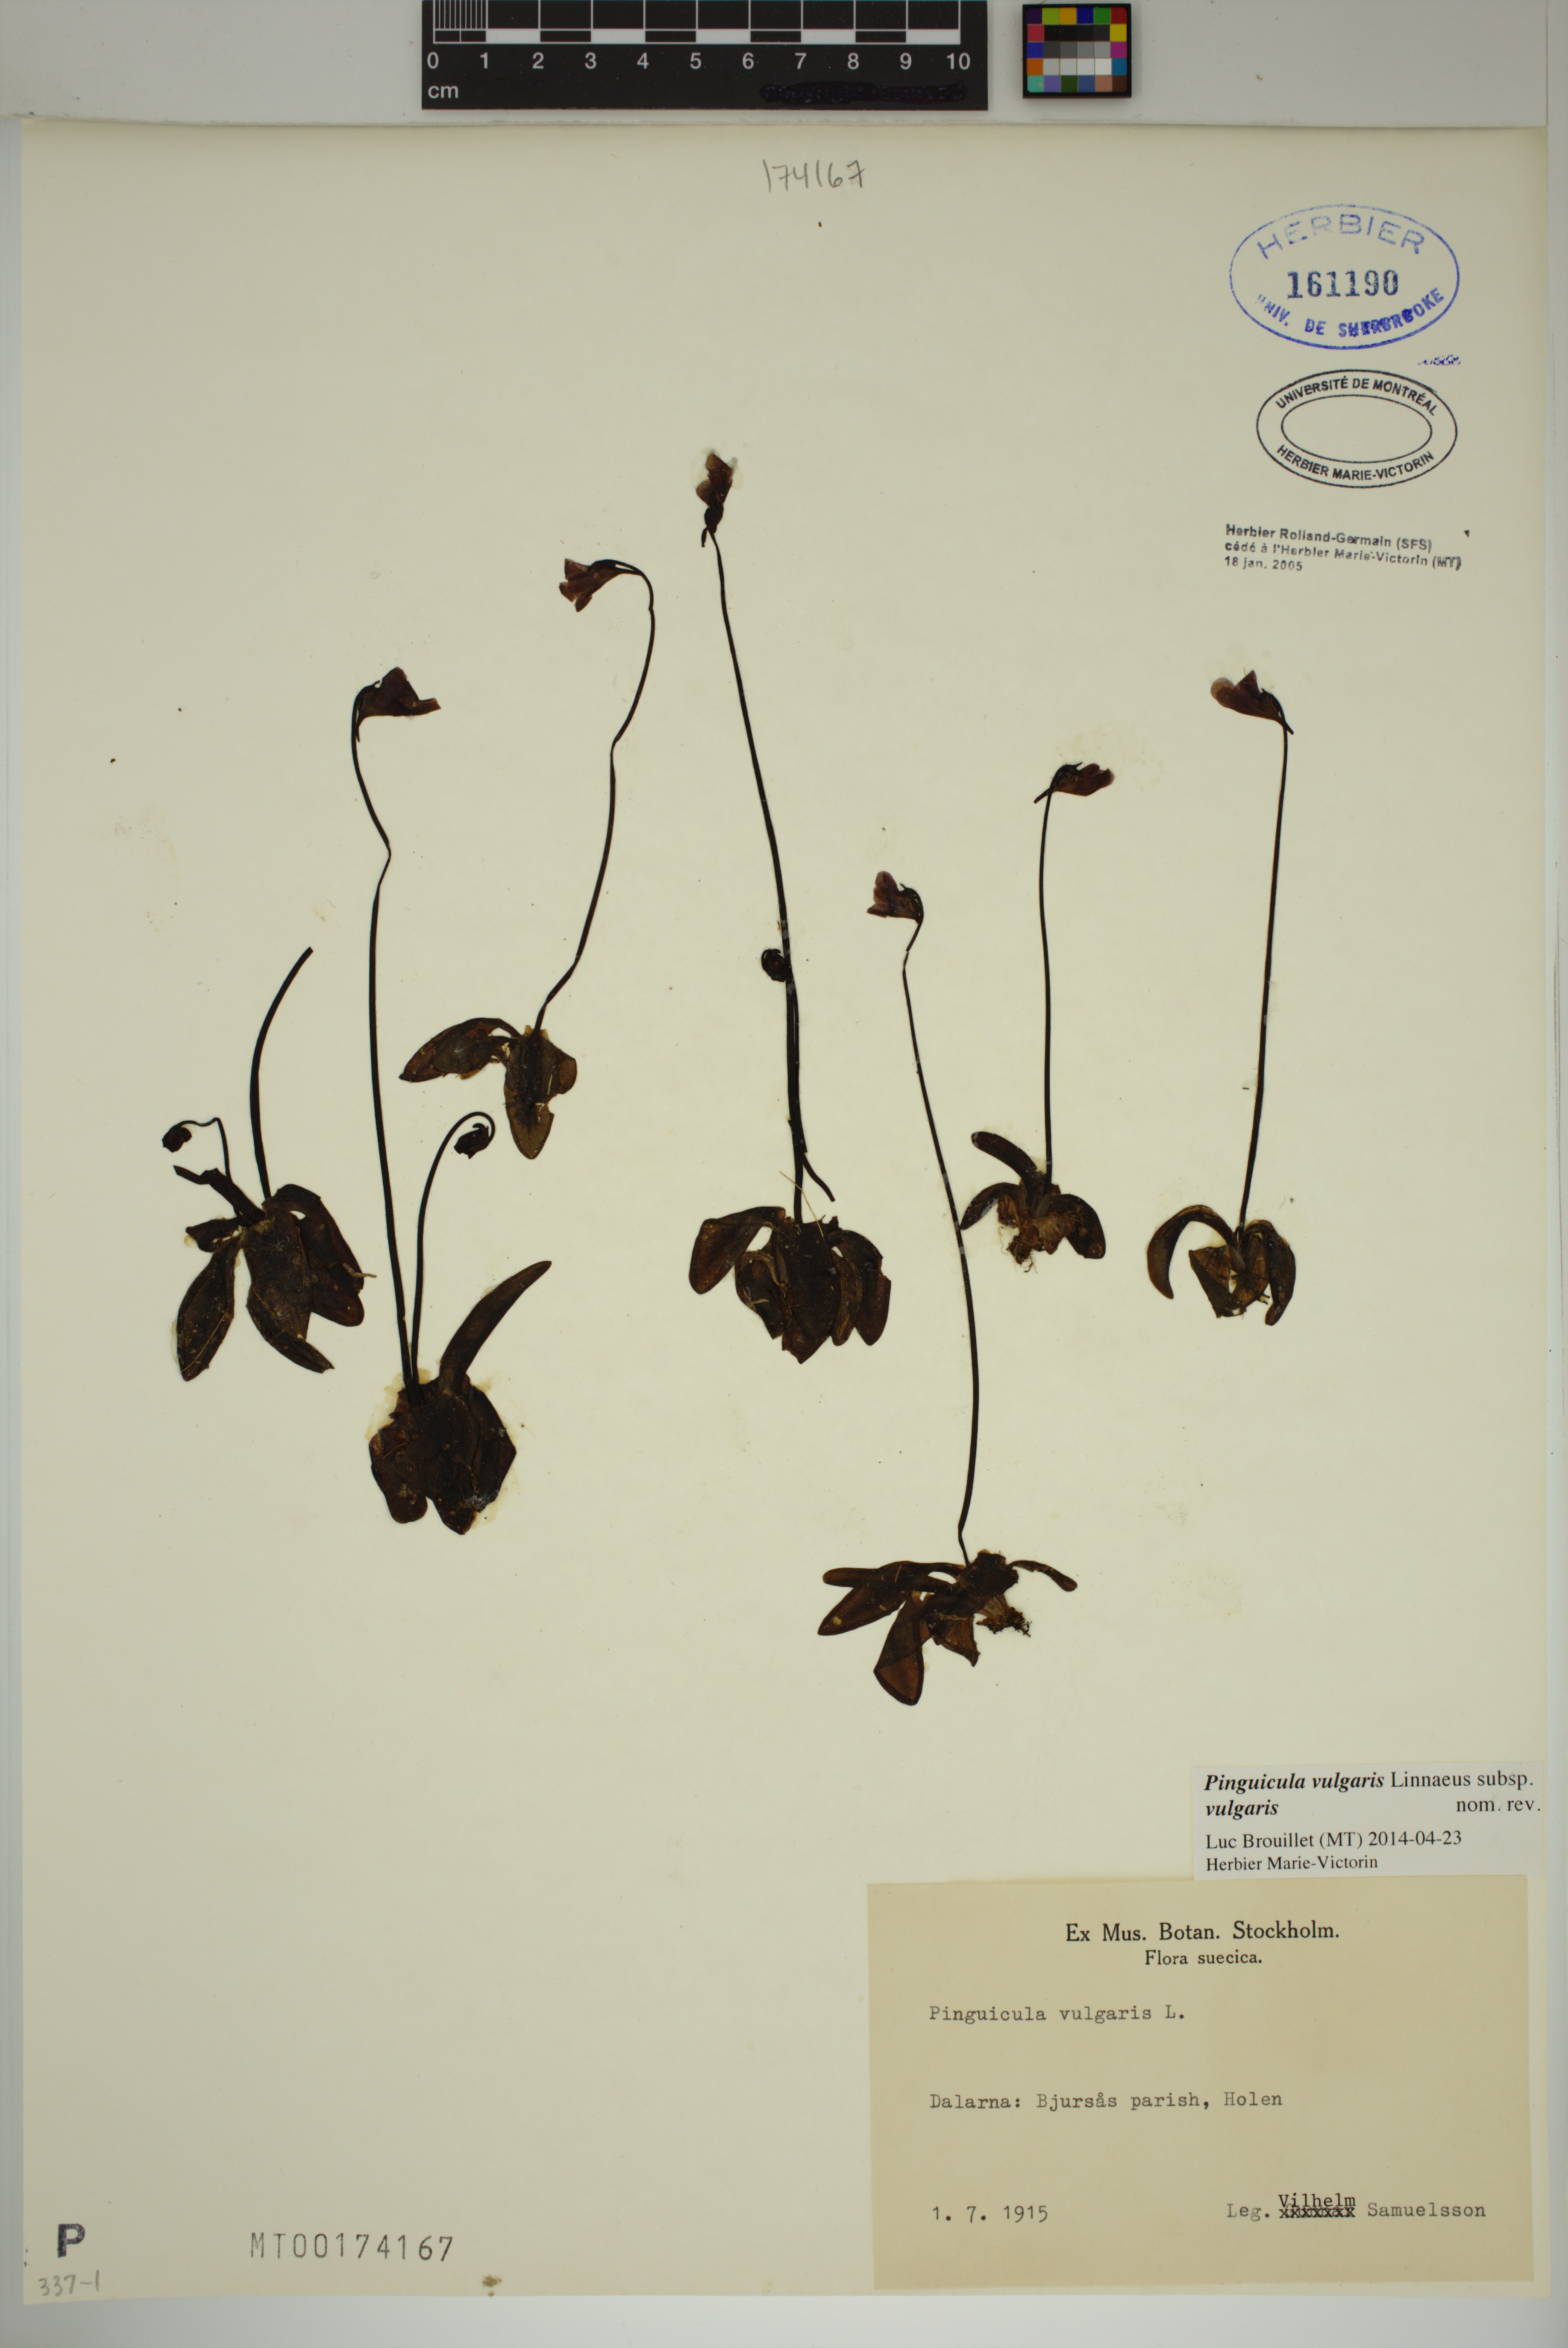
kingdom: Plantae
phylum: Tracheophyta
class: Magnoliopsida
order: Lamiales
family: Lentibulariaceae
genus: Pinguicula
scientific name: Pinguicula vulgaris
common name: Common butterwort
